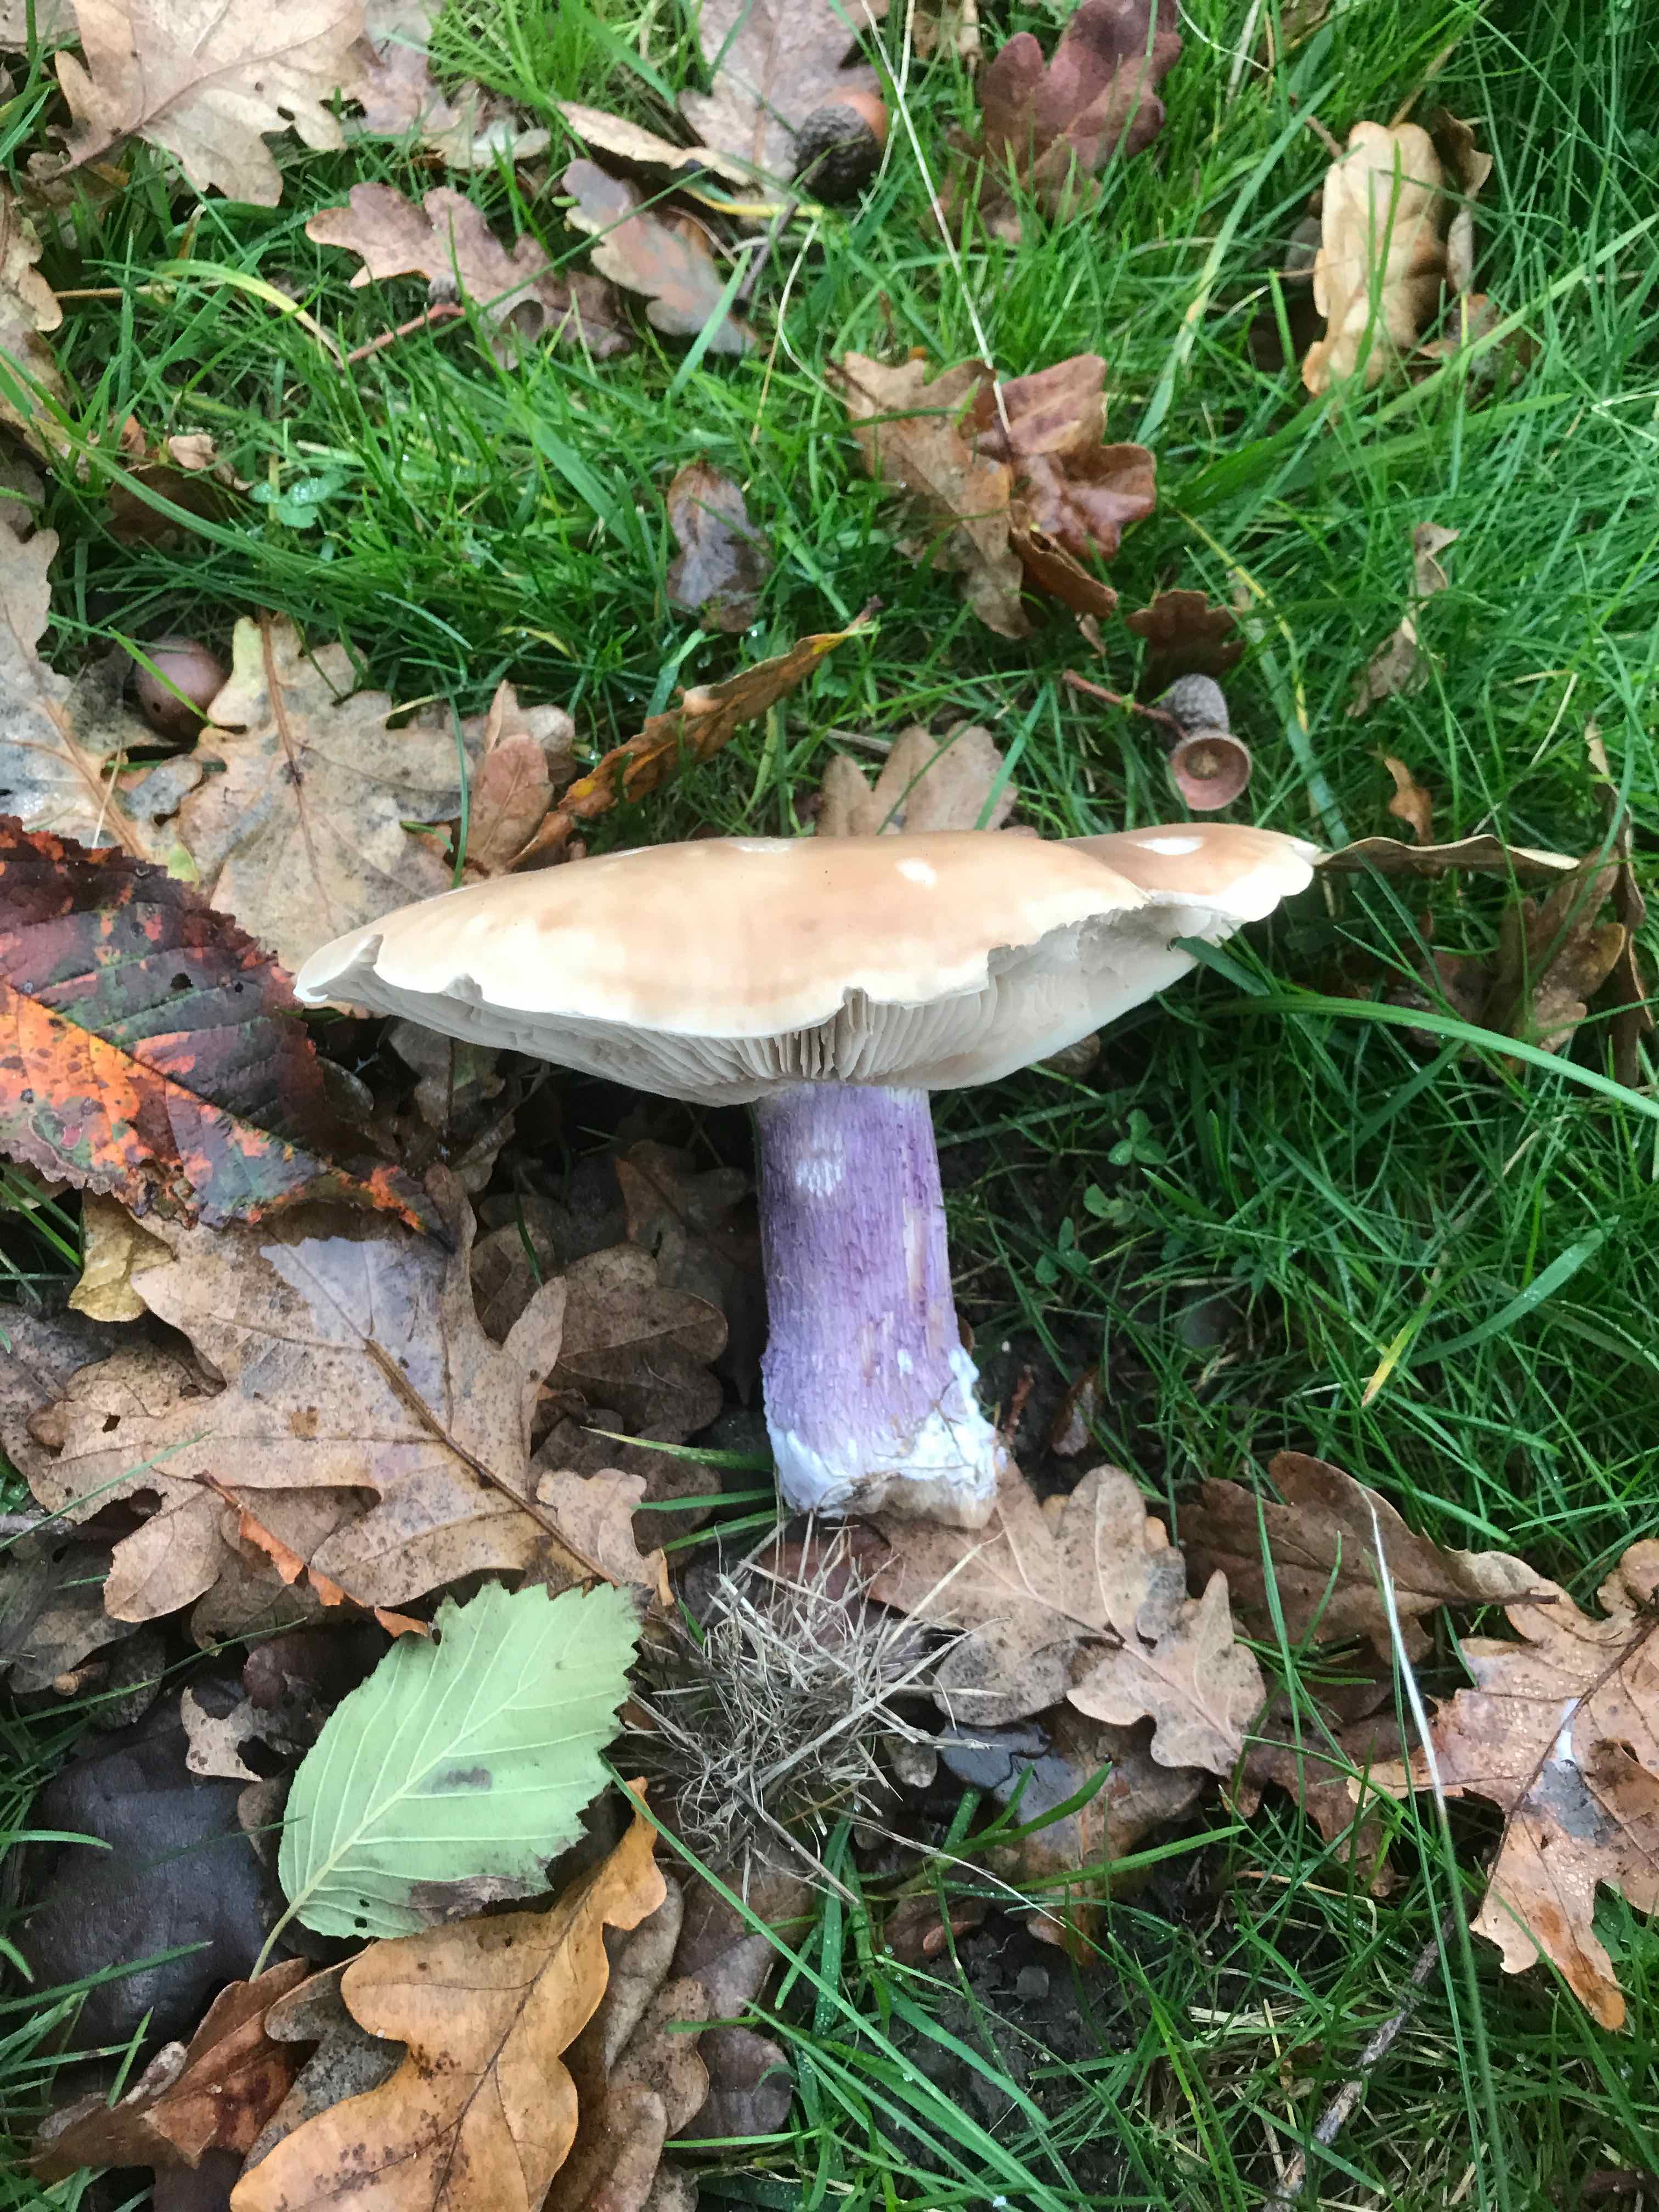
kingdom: Fungi
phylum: Basidiomycota
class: Agaricomycetes
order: Agaricales
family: Tricholomataceae
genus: Lepista
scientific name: Lepista personata
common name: bleg hekseringshat
